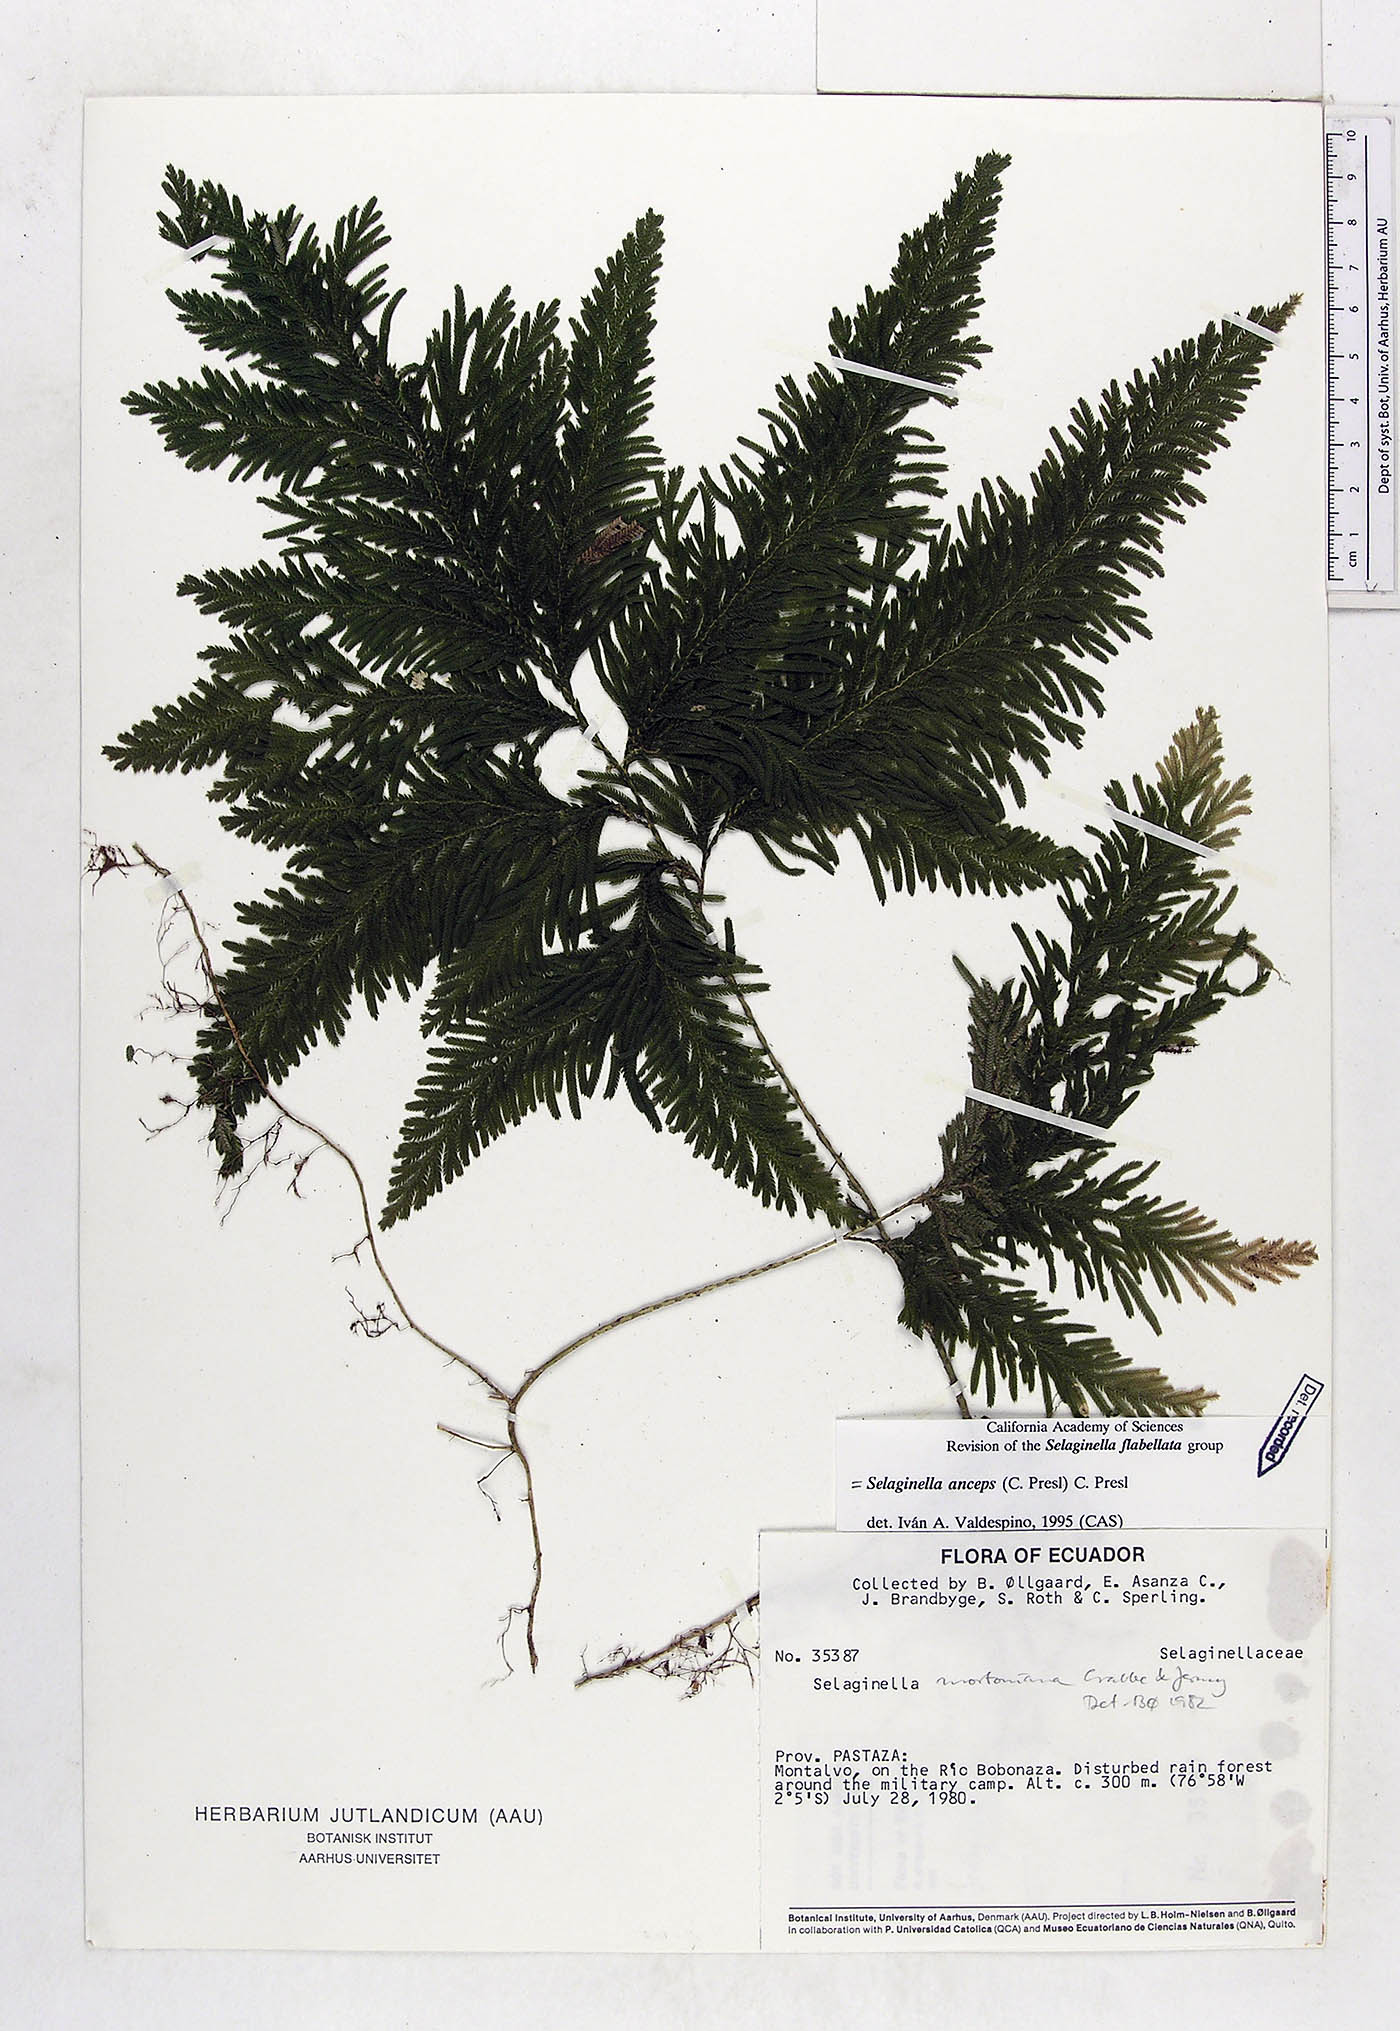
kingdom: Plantae
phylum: Tracheophyta
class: Lycopodiopsida
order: Selaginellales
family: Selaginellaceae
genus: Selaginella
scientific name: Selaginella anceps
